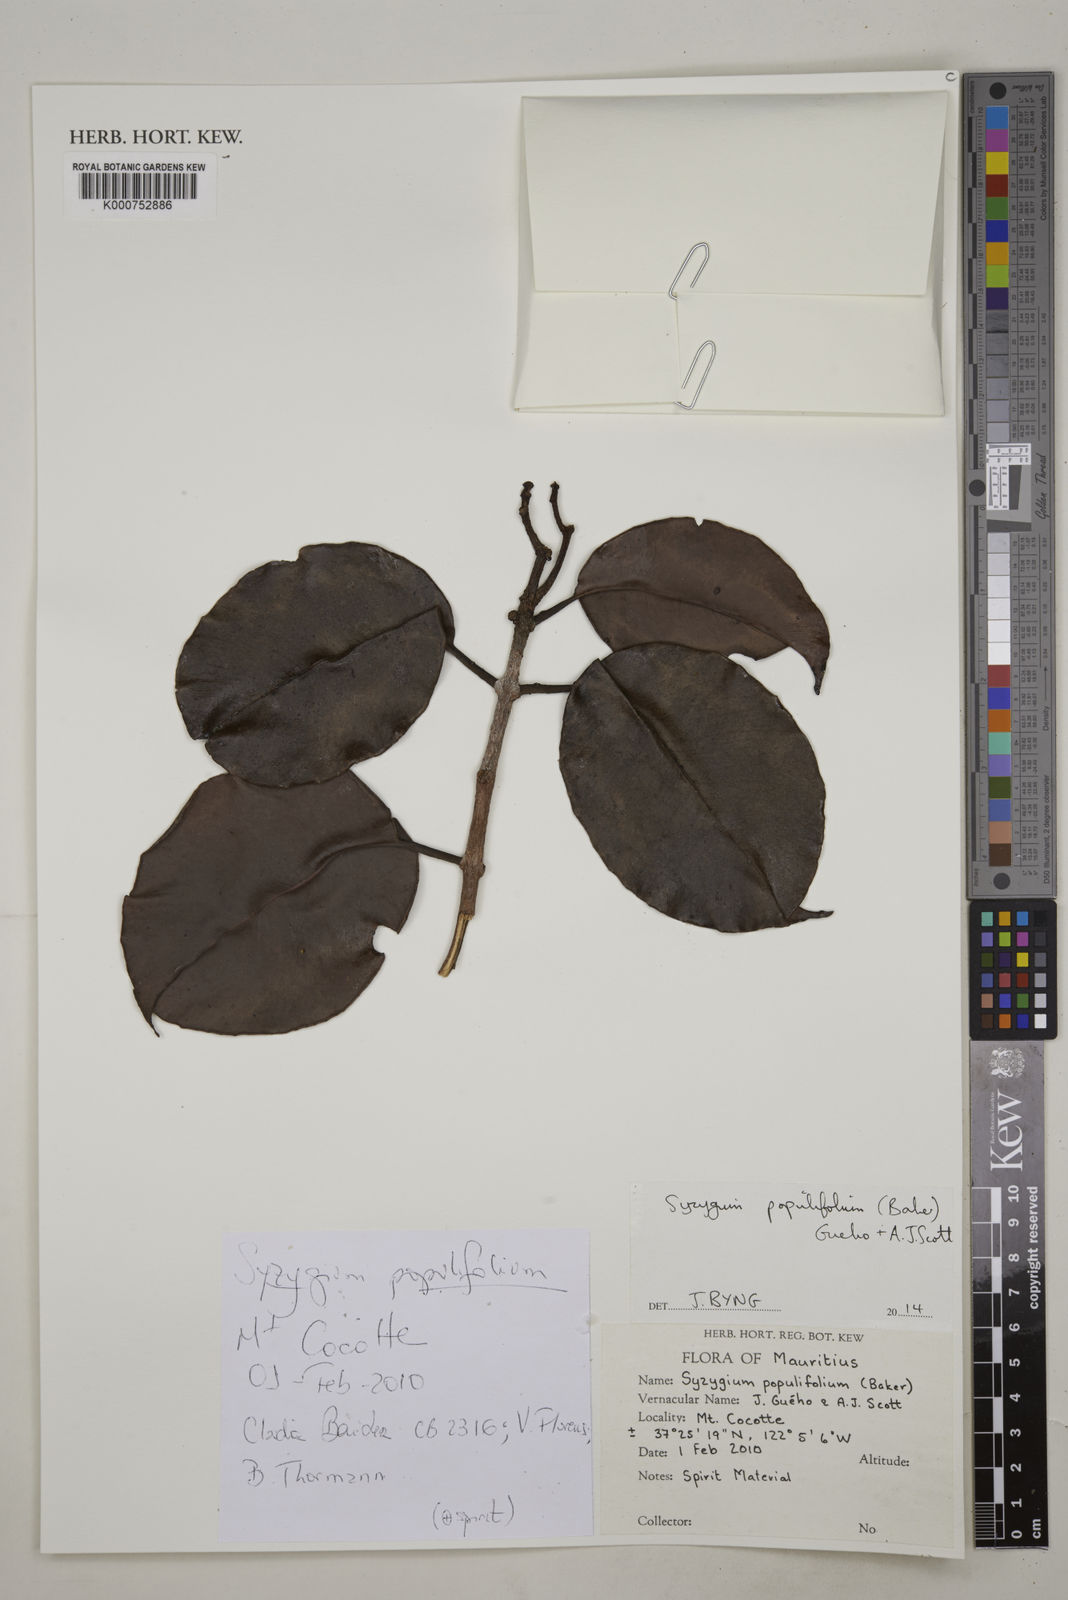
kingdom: Plantae
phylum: Tracheophyta
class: Magnoliopsida
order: Myrtales
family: Myrtaceae
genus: Syzygium
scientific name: Syzygium
